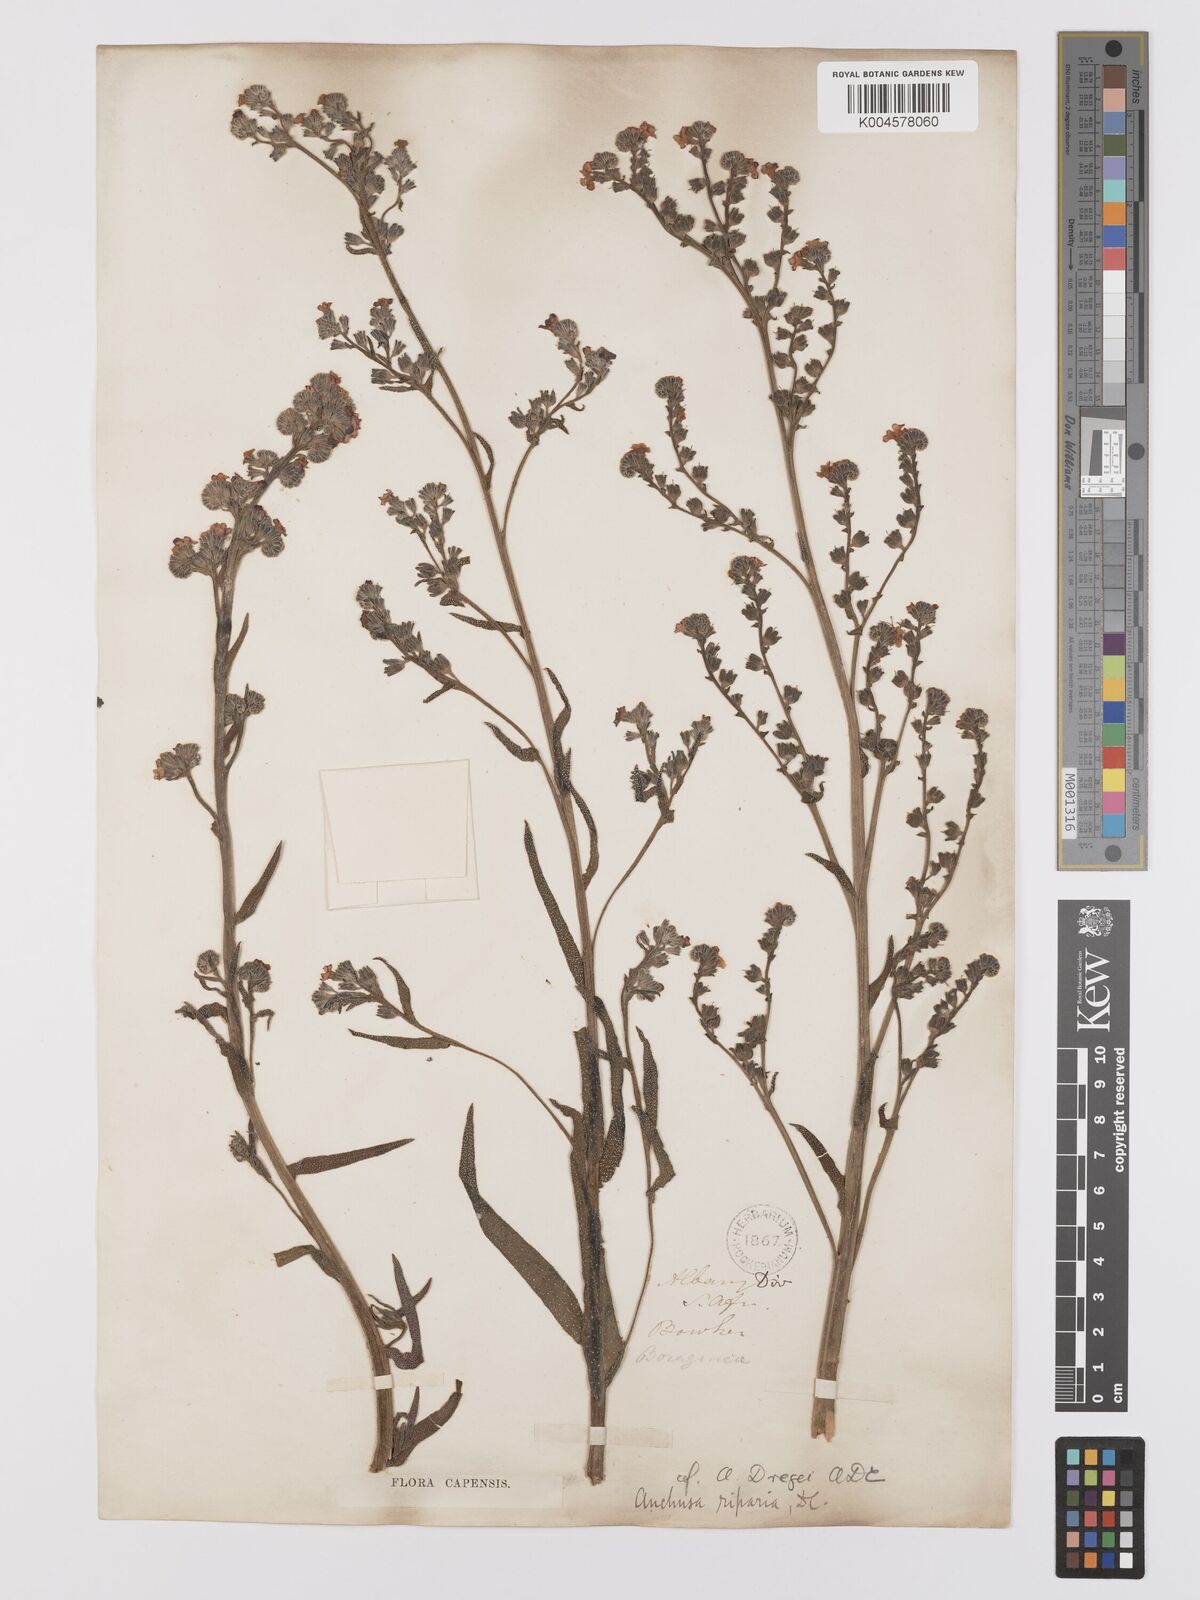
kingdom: Plantae
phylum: Tracheophyta
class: Magnoliopsida
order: Boraginales
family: Boraginaceae
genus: Anchusa
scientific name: Anchusa capensis
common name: Cape bugloss
